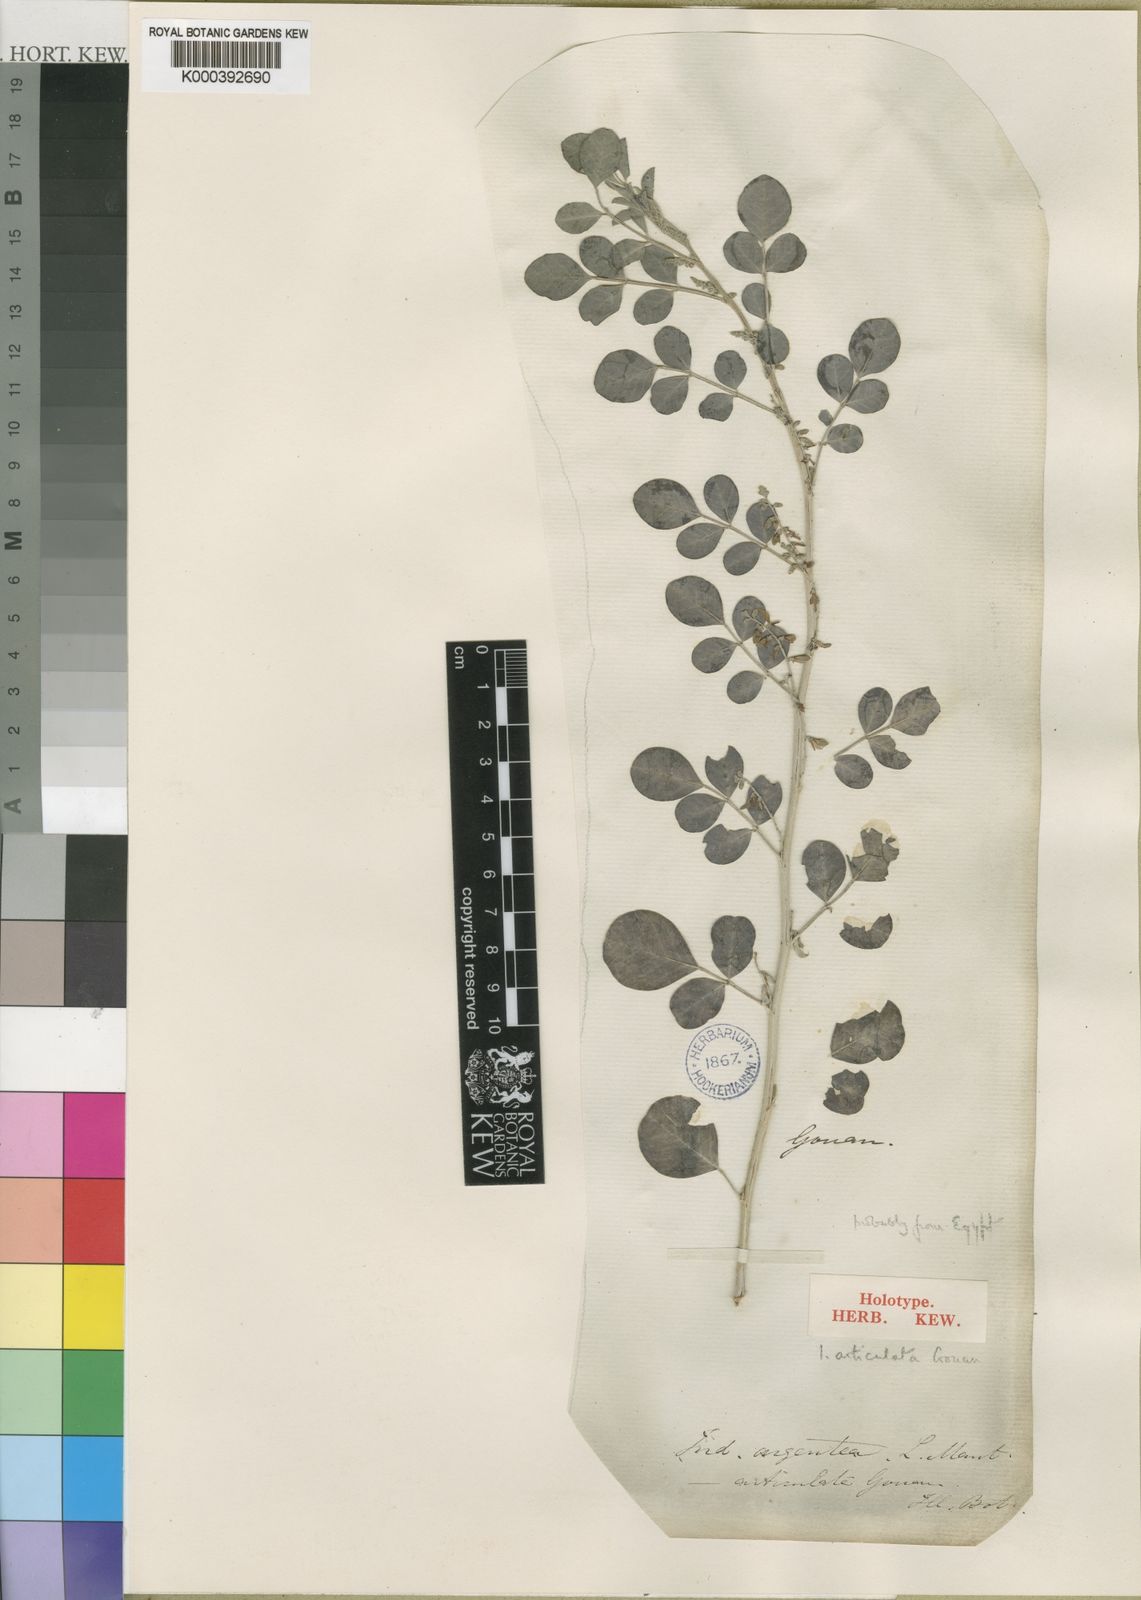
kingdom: Plantae
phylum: Tracheophyta
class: Magnoliopsida
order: Fabales
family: Fabaceae
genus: Indigofera
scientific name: Indigofera articulata
